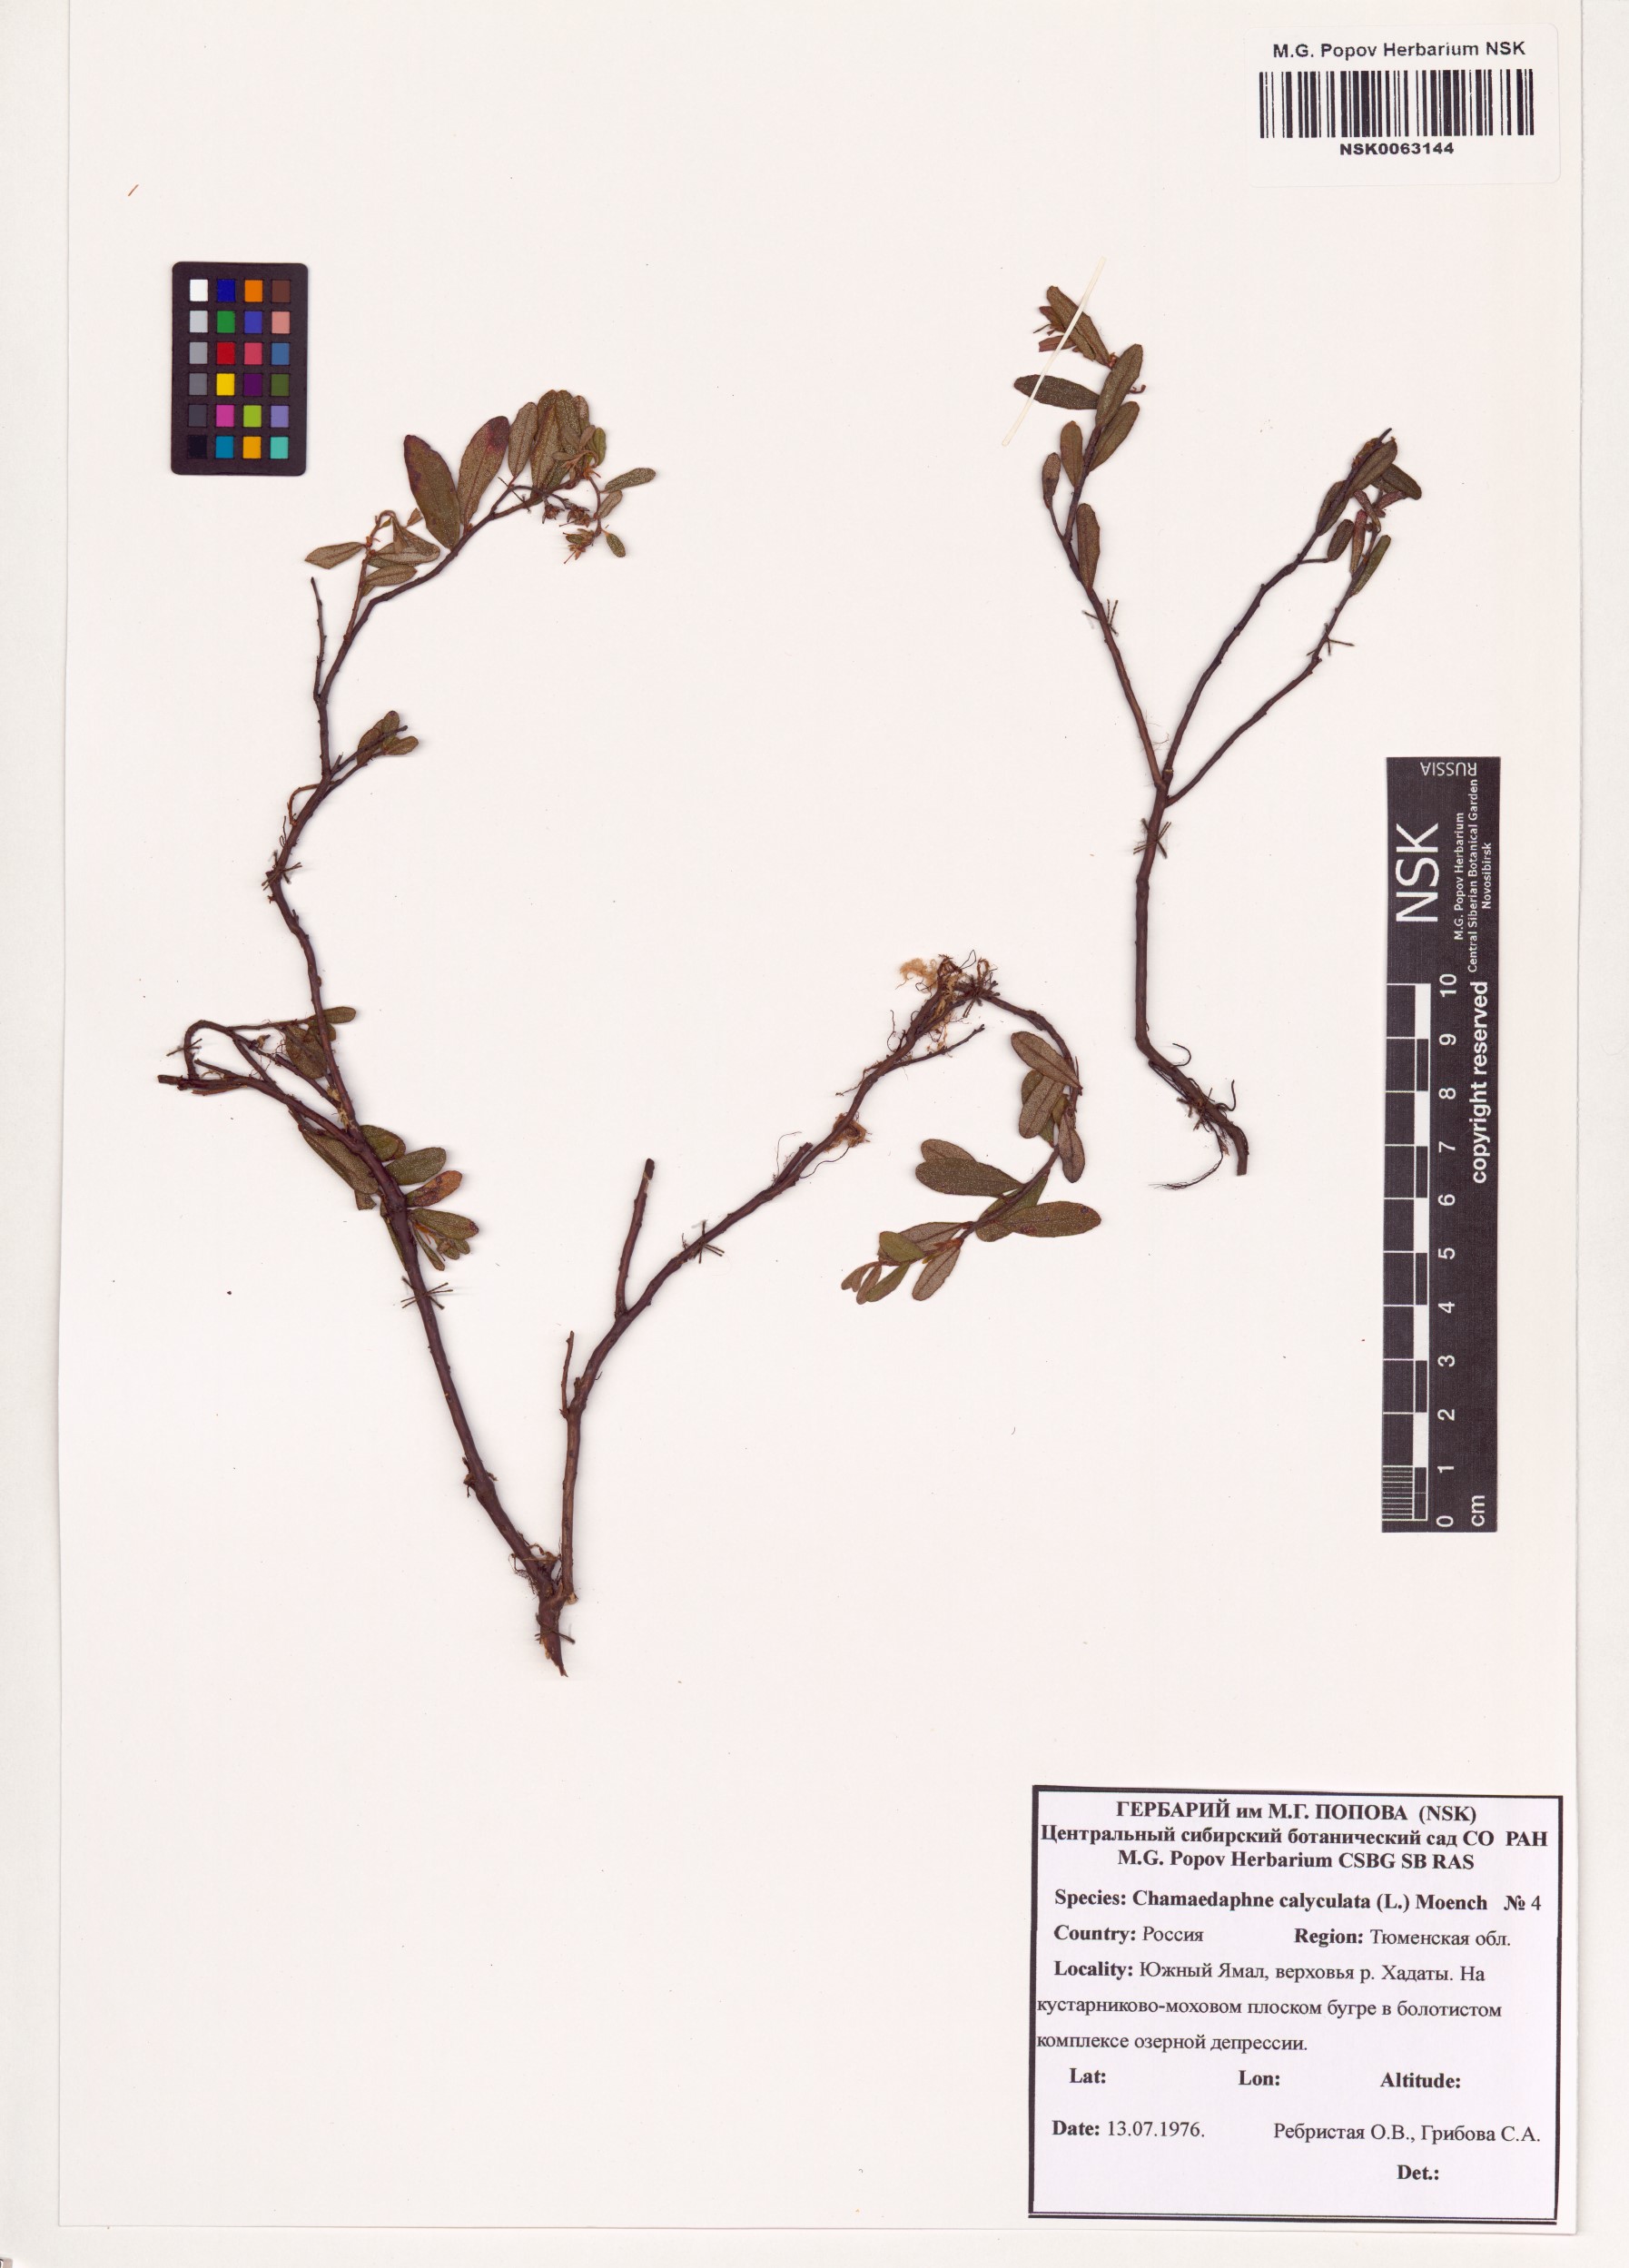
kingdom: Plantae
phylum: Tracheophyta
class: Magnoliopsida
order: Ericales
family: Ericaceae
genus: Chamaedaphne
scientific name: Chamaedaphne calyculata
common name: Leatherleaf
